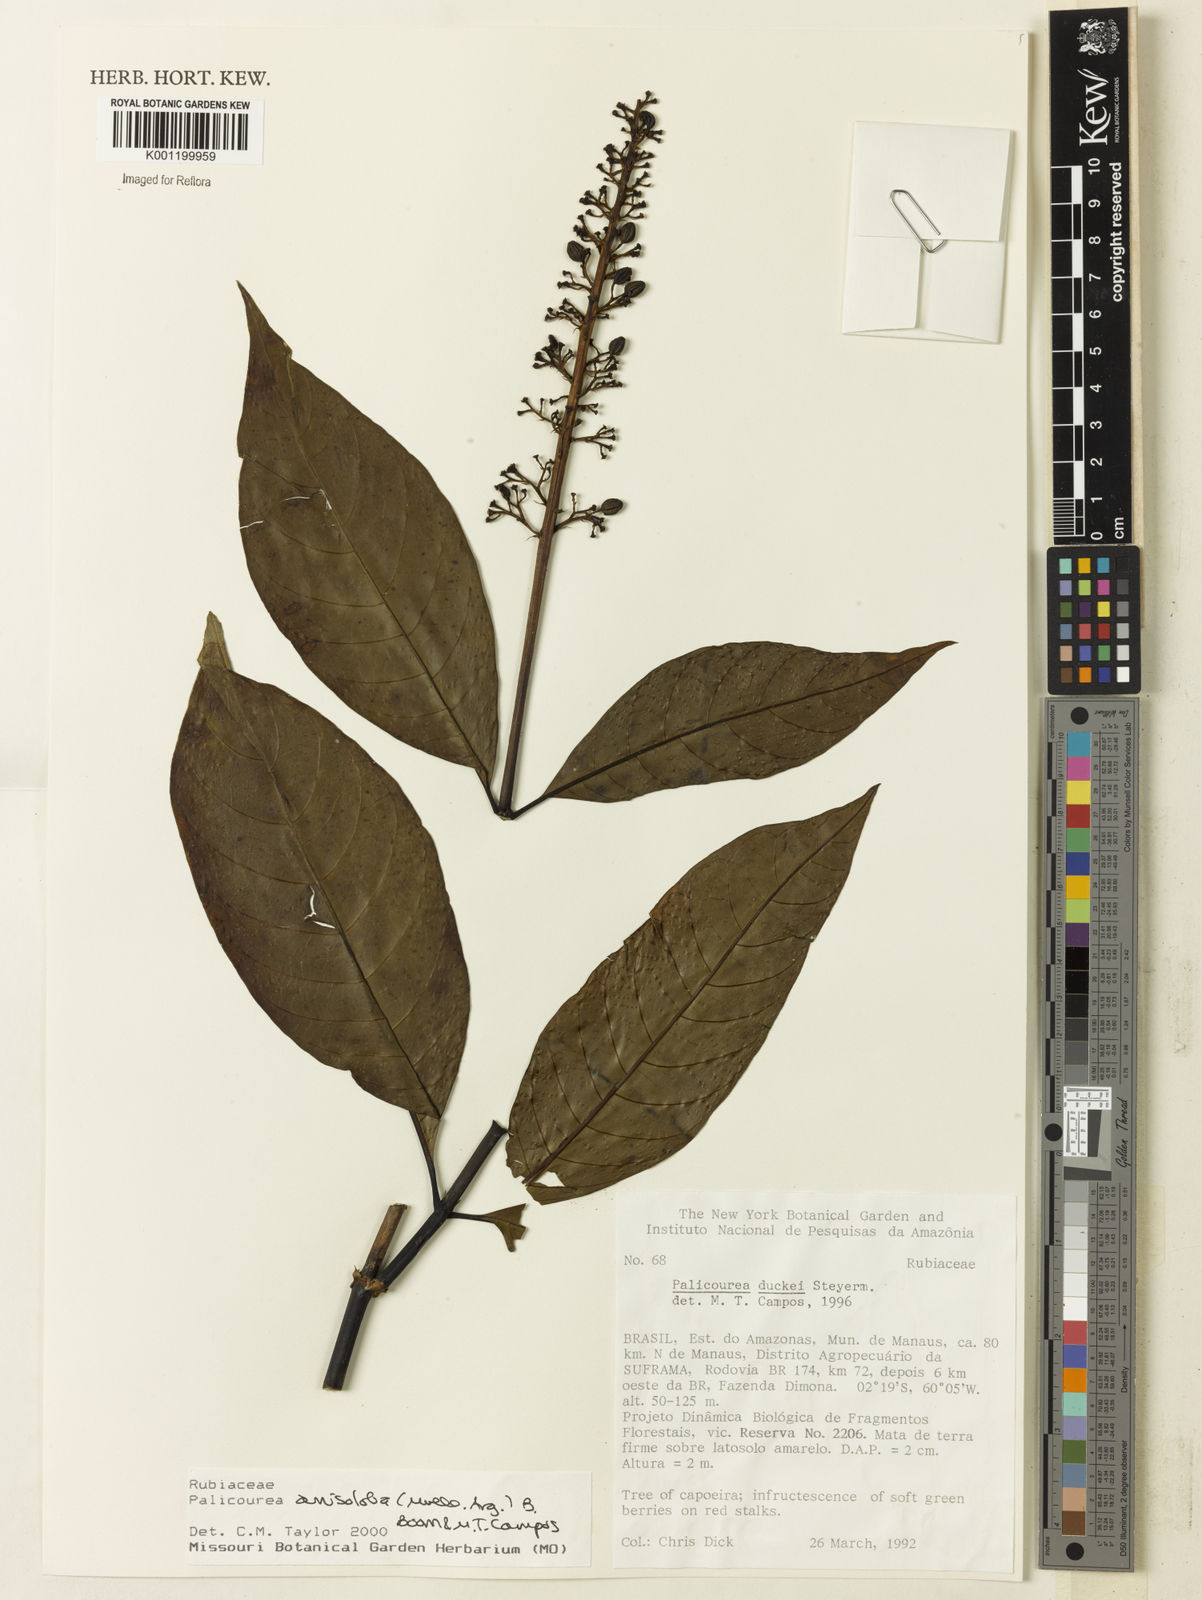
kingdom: Plantae
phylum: Tracheophyta
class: Magnoliopsida
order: Gentianales
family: Rubiaceae
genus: Palicourea
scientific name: Palicourea
